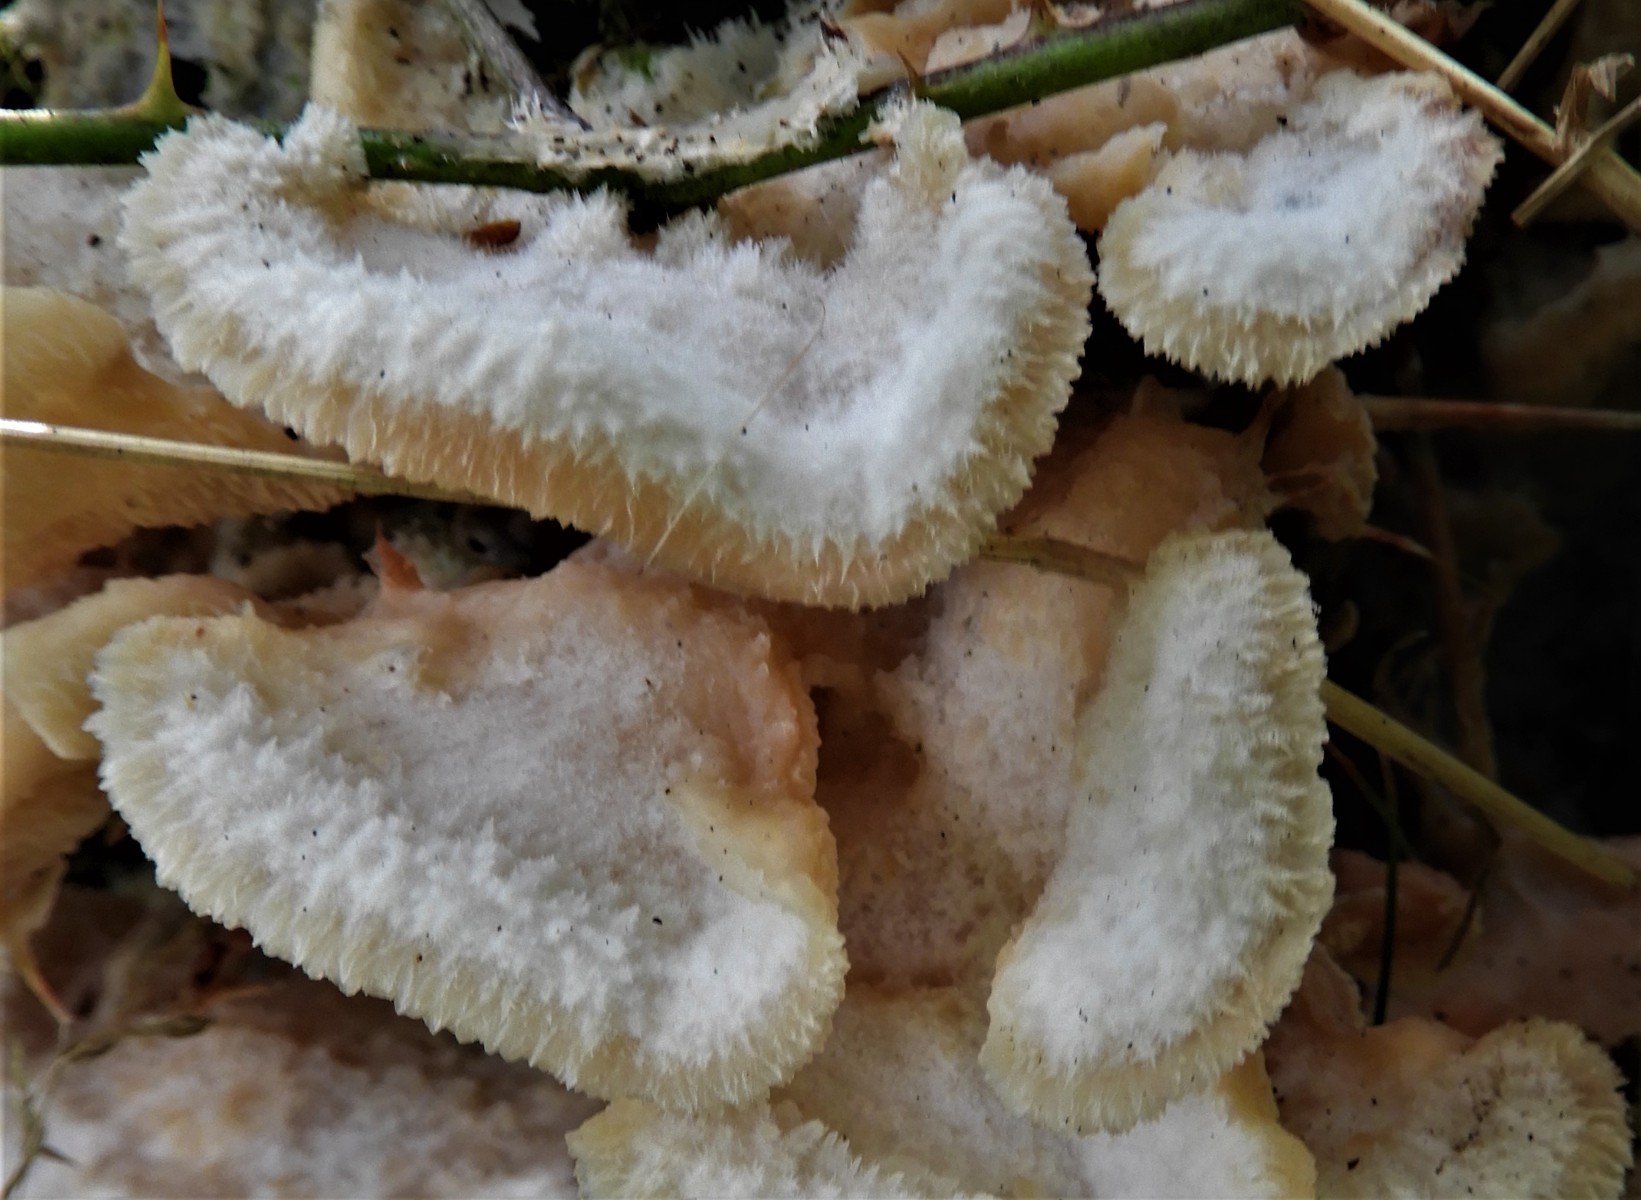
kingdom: Fungi
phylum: Basidiomycota
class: Agaricomycetes
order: Polyporales
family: Meruliaceae
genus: Phlebia
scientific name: Phlebia tremellosa
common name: bævrende åresvamp
